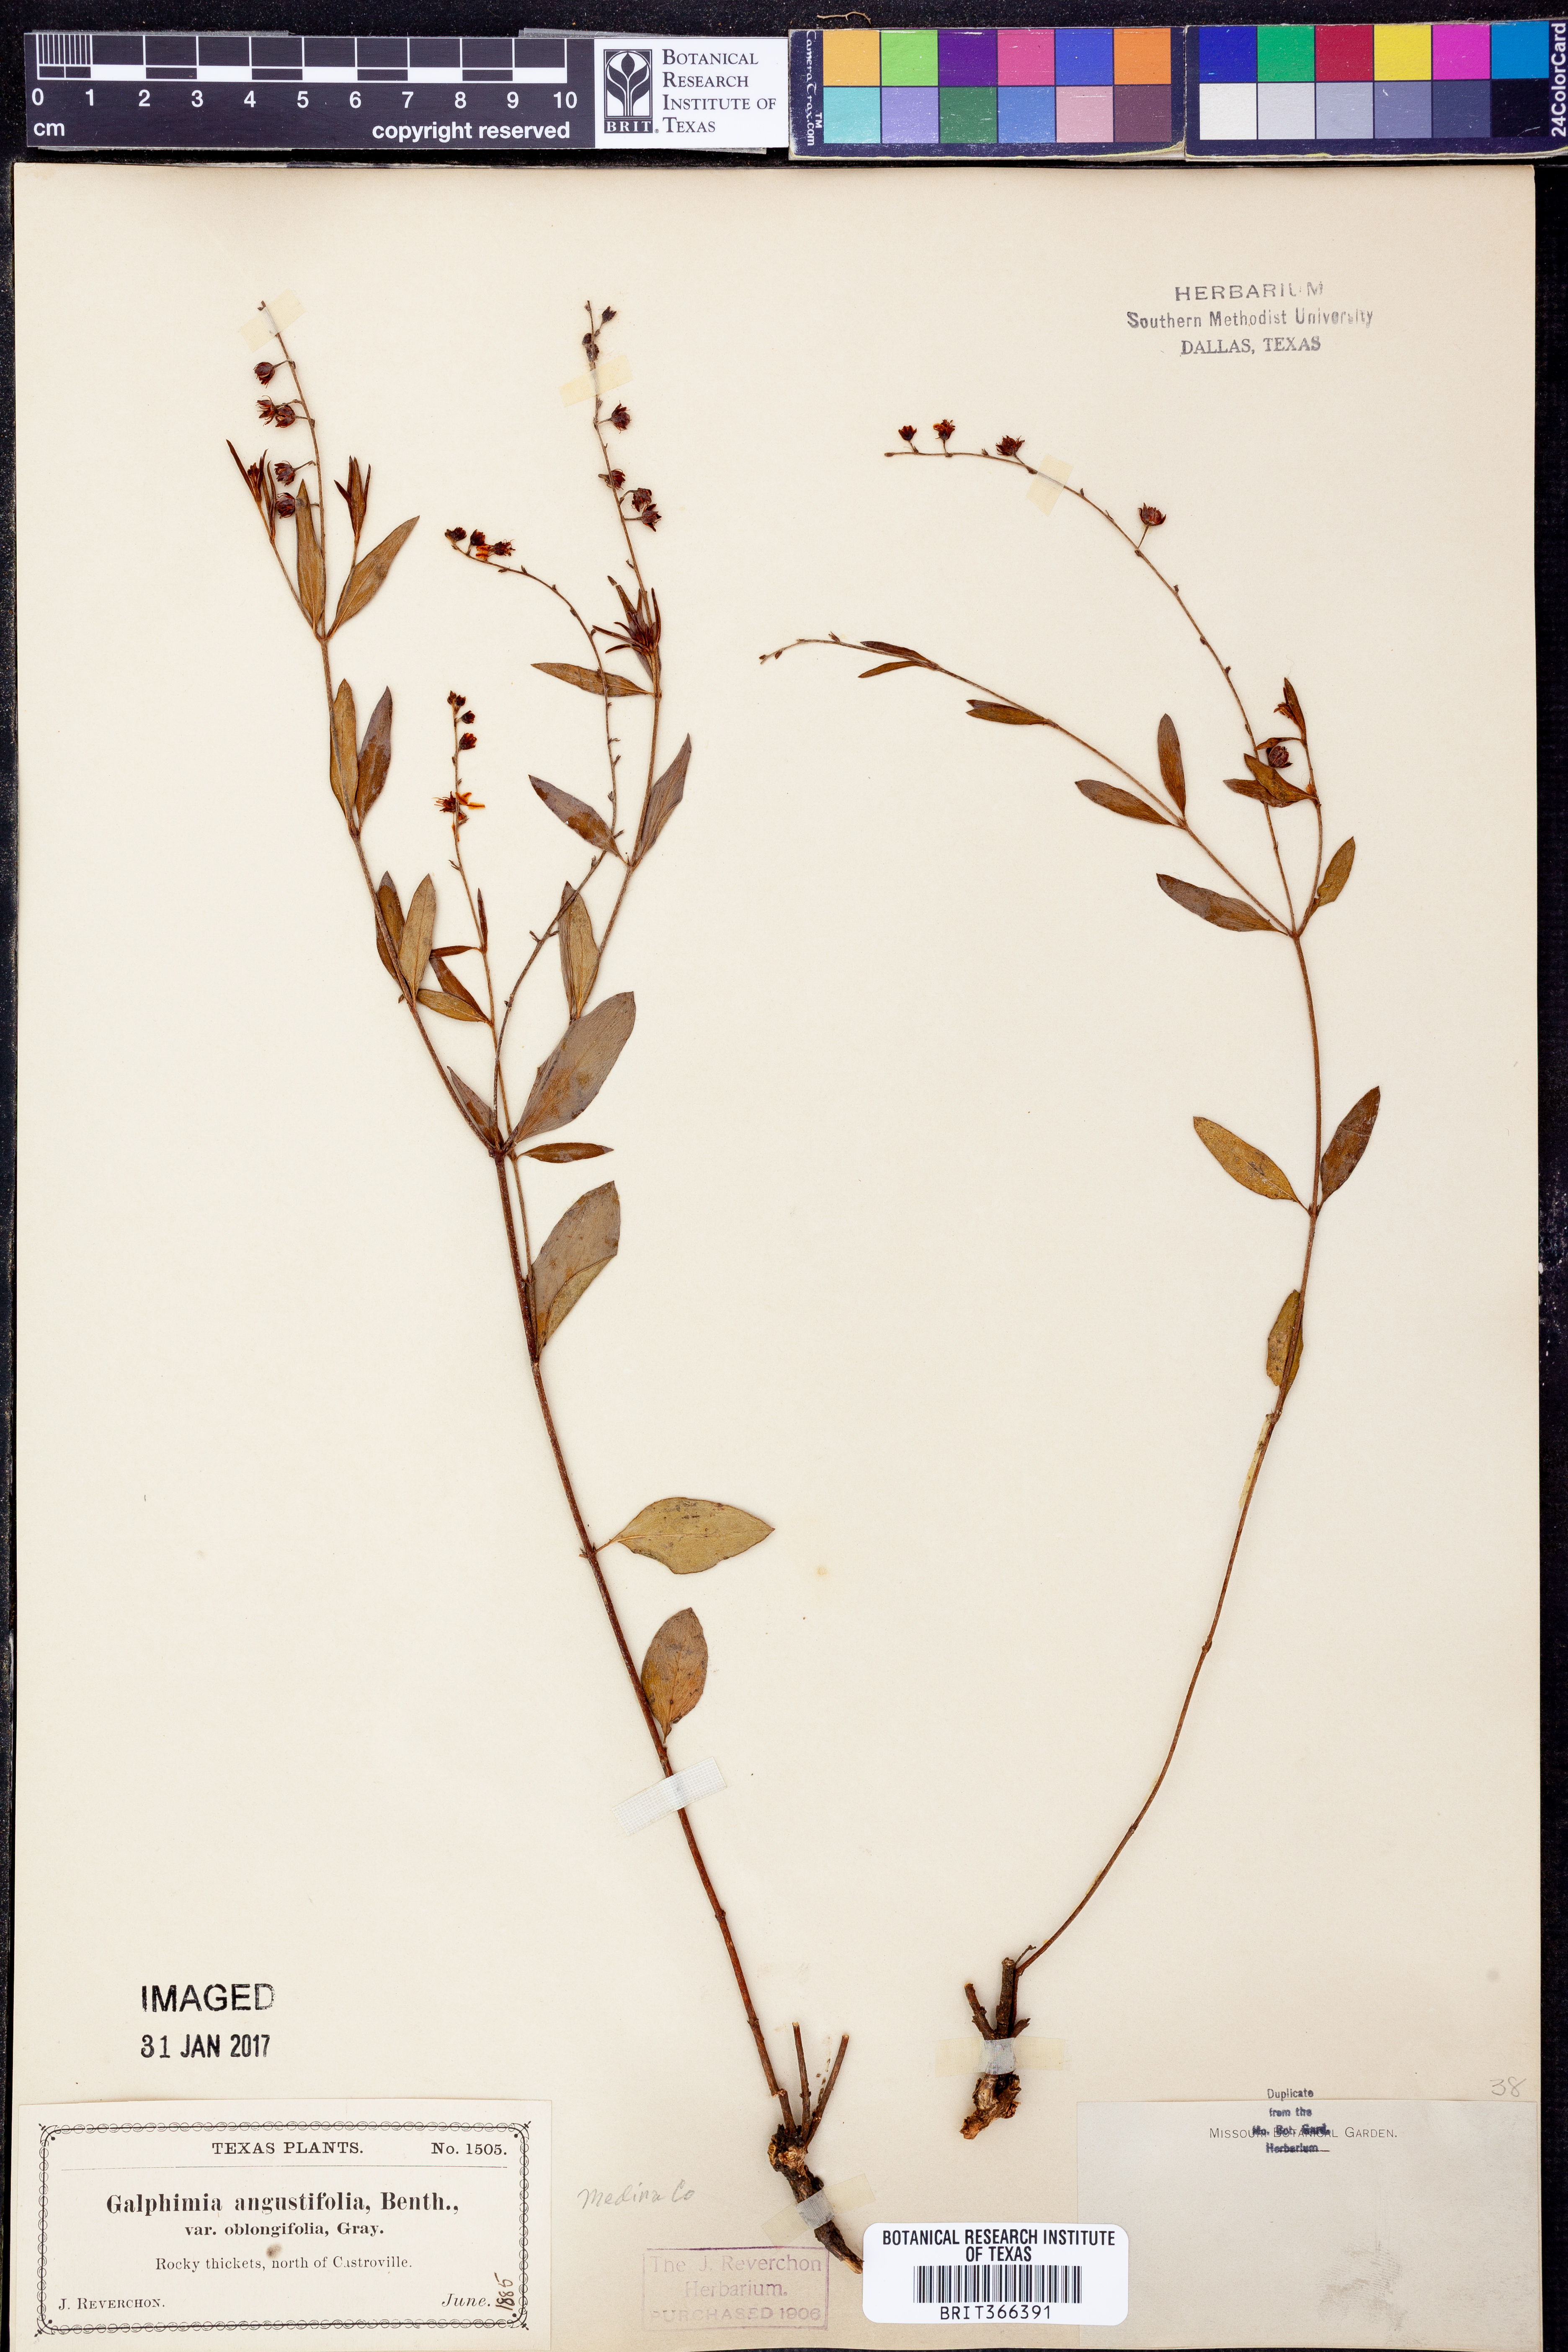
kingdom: Plantae
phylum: Tracheophyta
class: Magnoliopsida
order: Malpighiales
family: Malpighiaceae
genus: Galphimia
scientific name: Galphimia angustifolia
